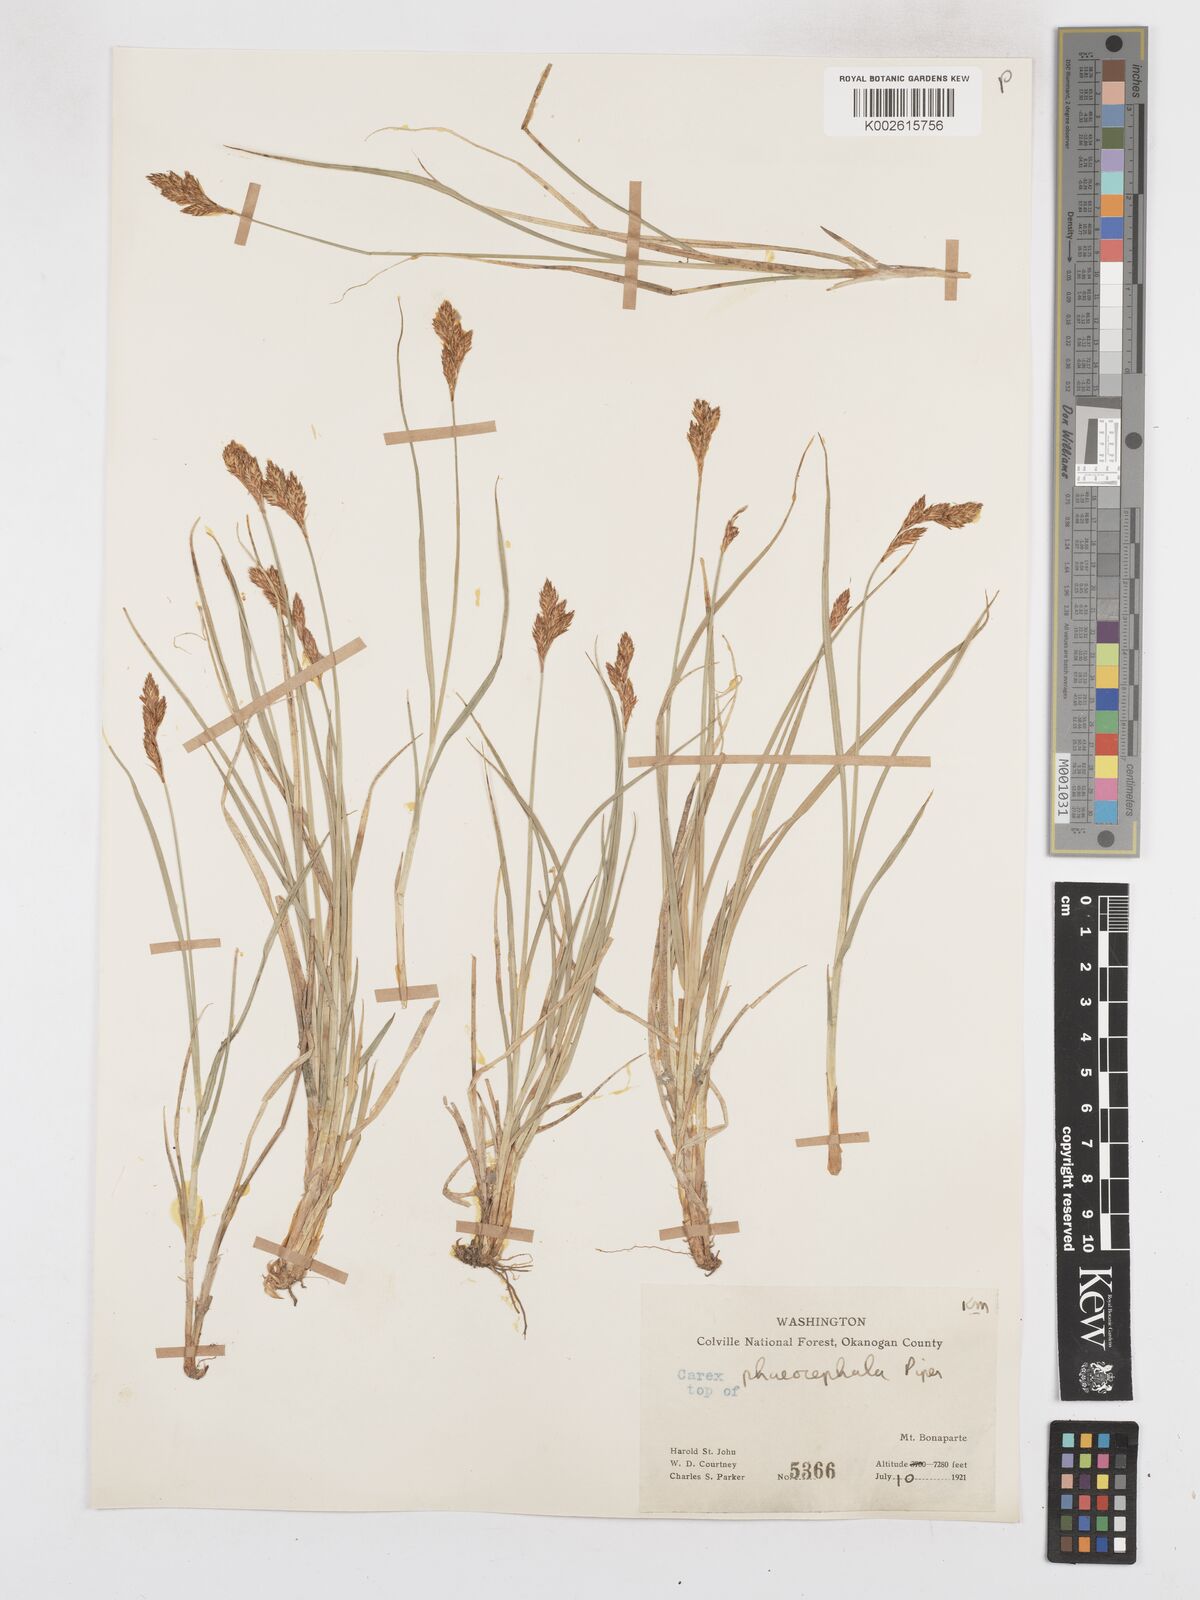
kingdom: Plantae
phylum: Tracheophyta
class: Liliopsida
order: Poales
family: Cyperaceae
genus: Carex
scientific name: Carex phaeocephala
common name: Brown-head sedge
